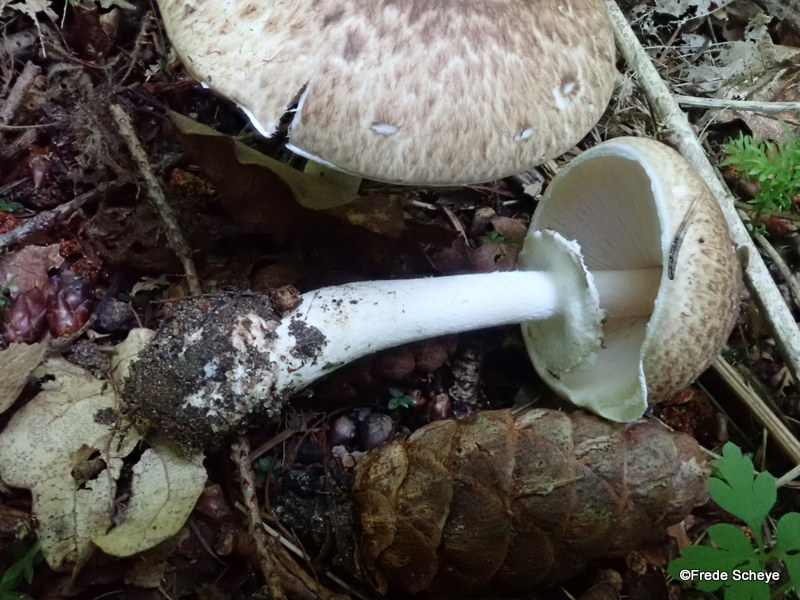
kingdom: Fungi
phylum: Basidiomycota
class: Agaricomycetes
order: Agaricales
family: Agaricaceae
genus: Agaricus
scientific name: Agaricus impudicus
